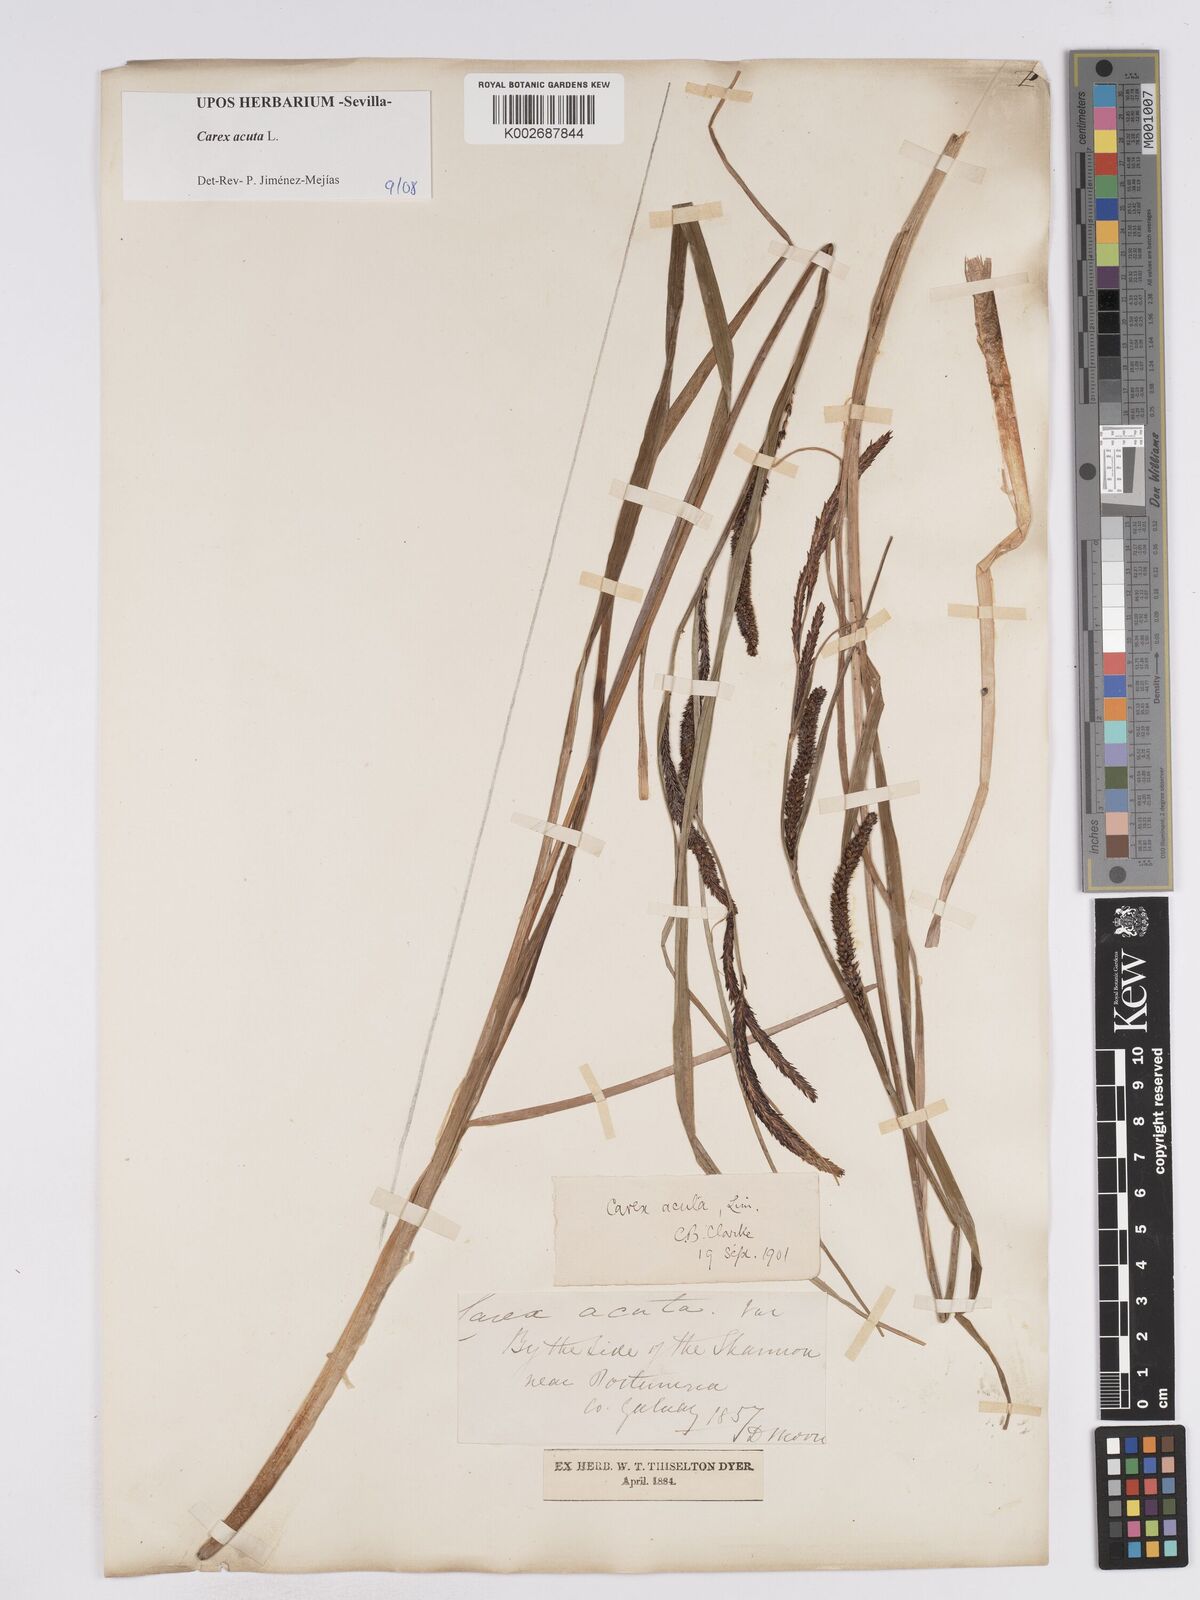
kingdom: Plantae
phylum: Tracheophyta
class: Liliopsida
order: Poales
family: Cyperaceae
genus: Carex
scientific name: Carex acuta
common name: Slender tufted-sedge
